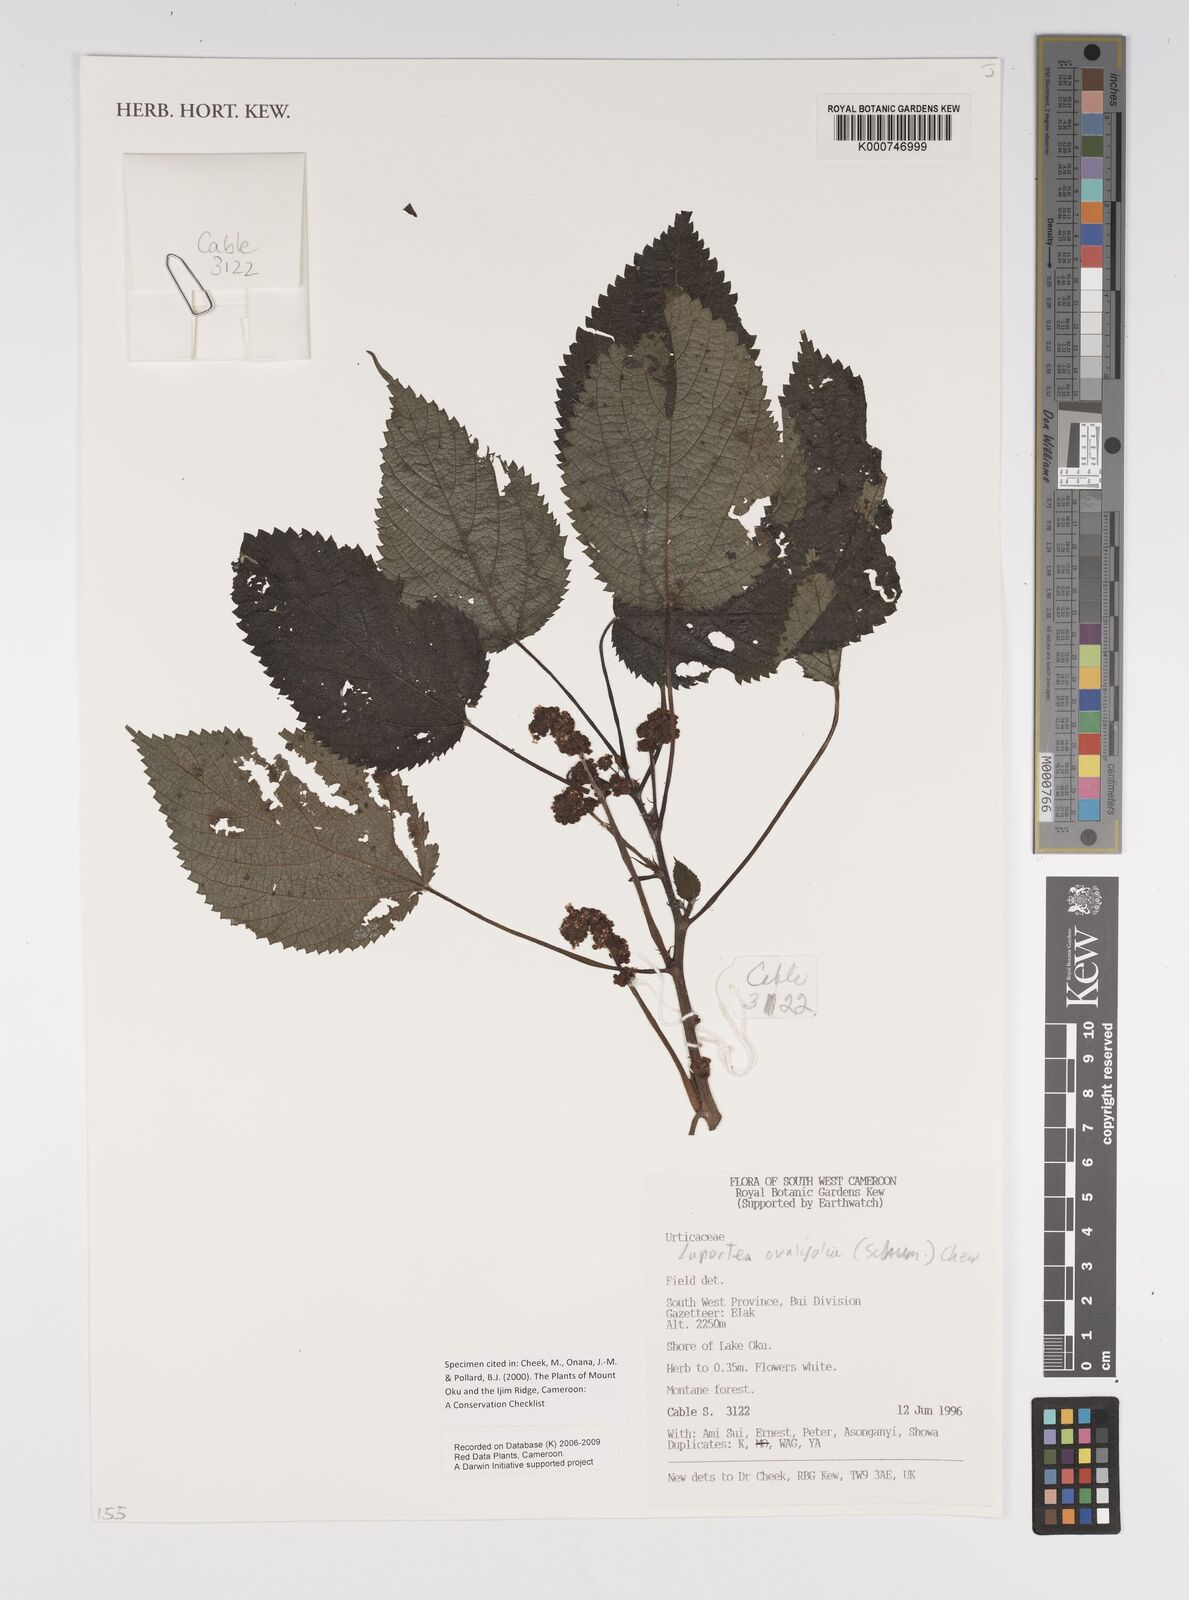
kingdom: Plantae
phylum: Tracheophyta
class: Magnoliopsida
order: Rosales
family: Urticaceae
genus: Laportea
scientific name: Laportea ovalifolia
